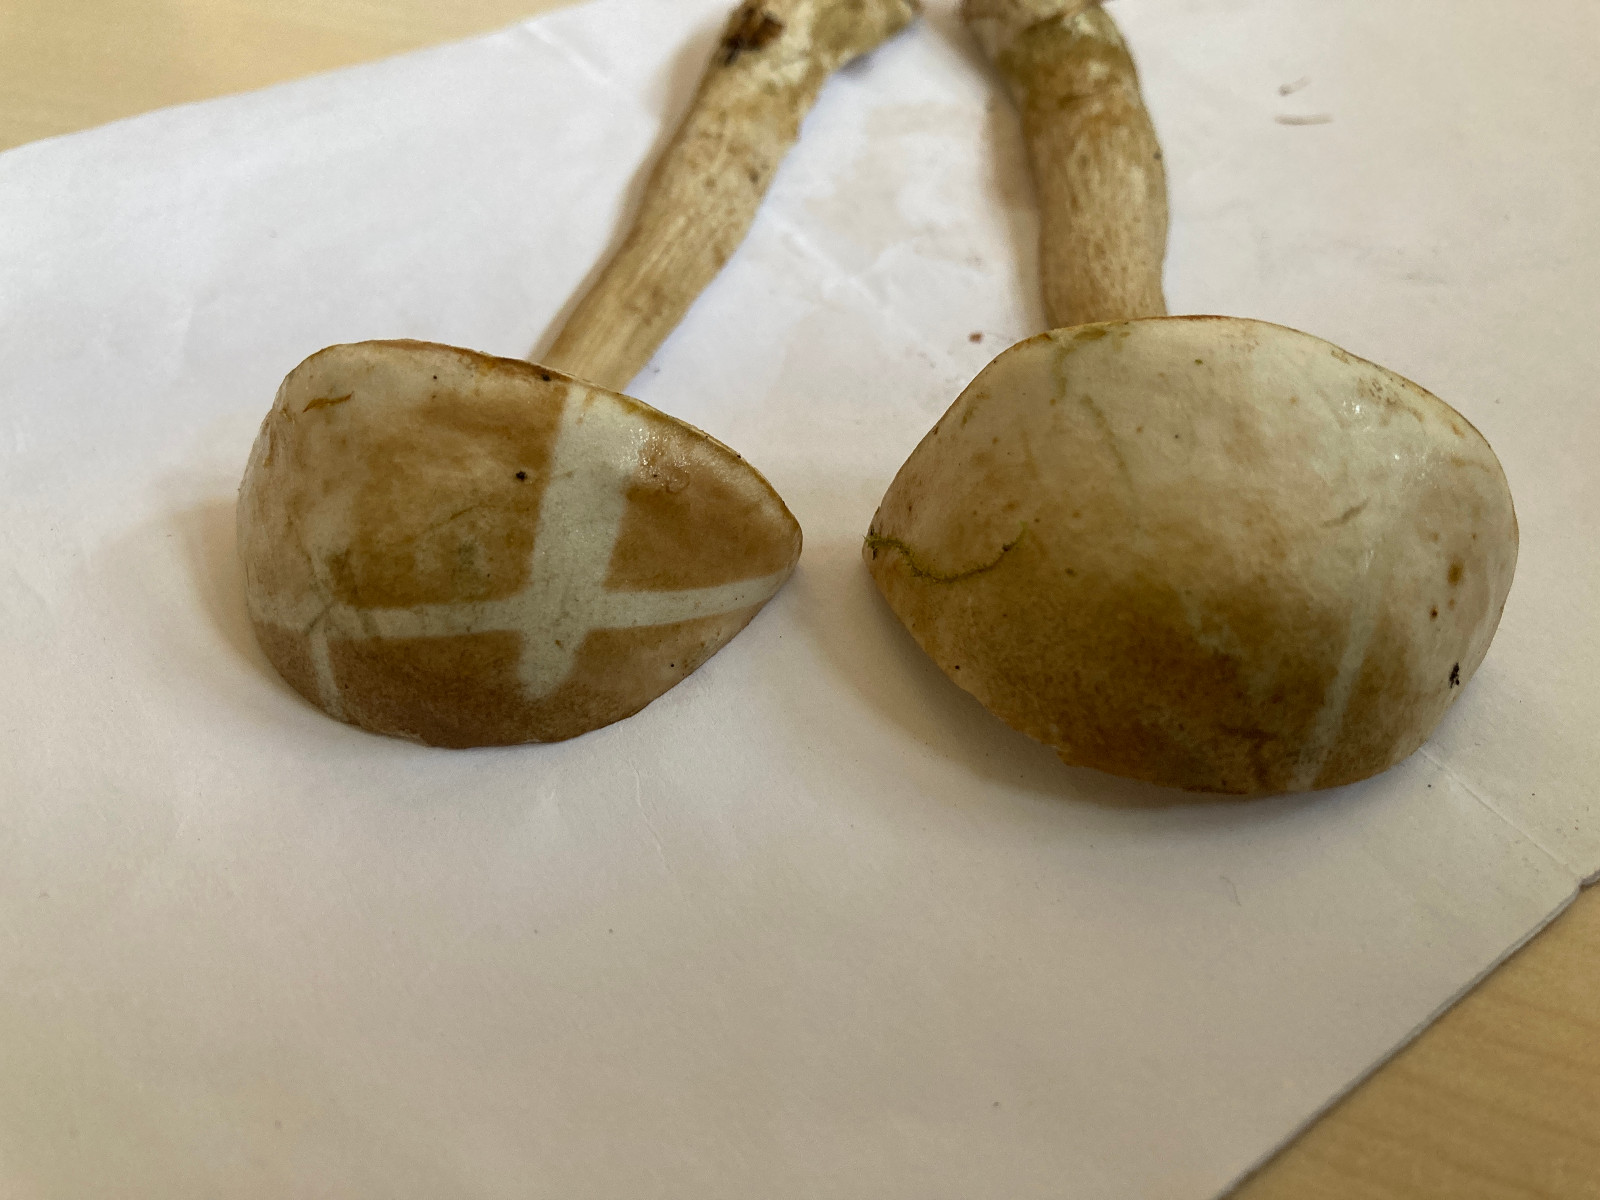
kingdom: Fungi
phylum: Basidiomycota
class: Agaricomycetes
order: Boletales
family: Boletaceae
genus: Leccinum
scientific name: Leccinum
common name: skælrørhat
